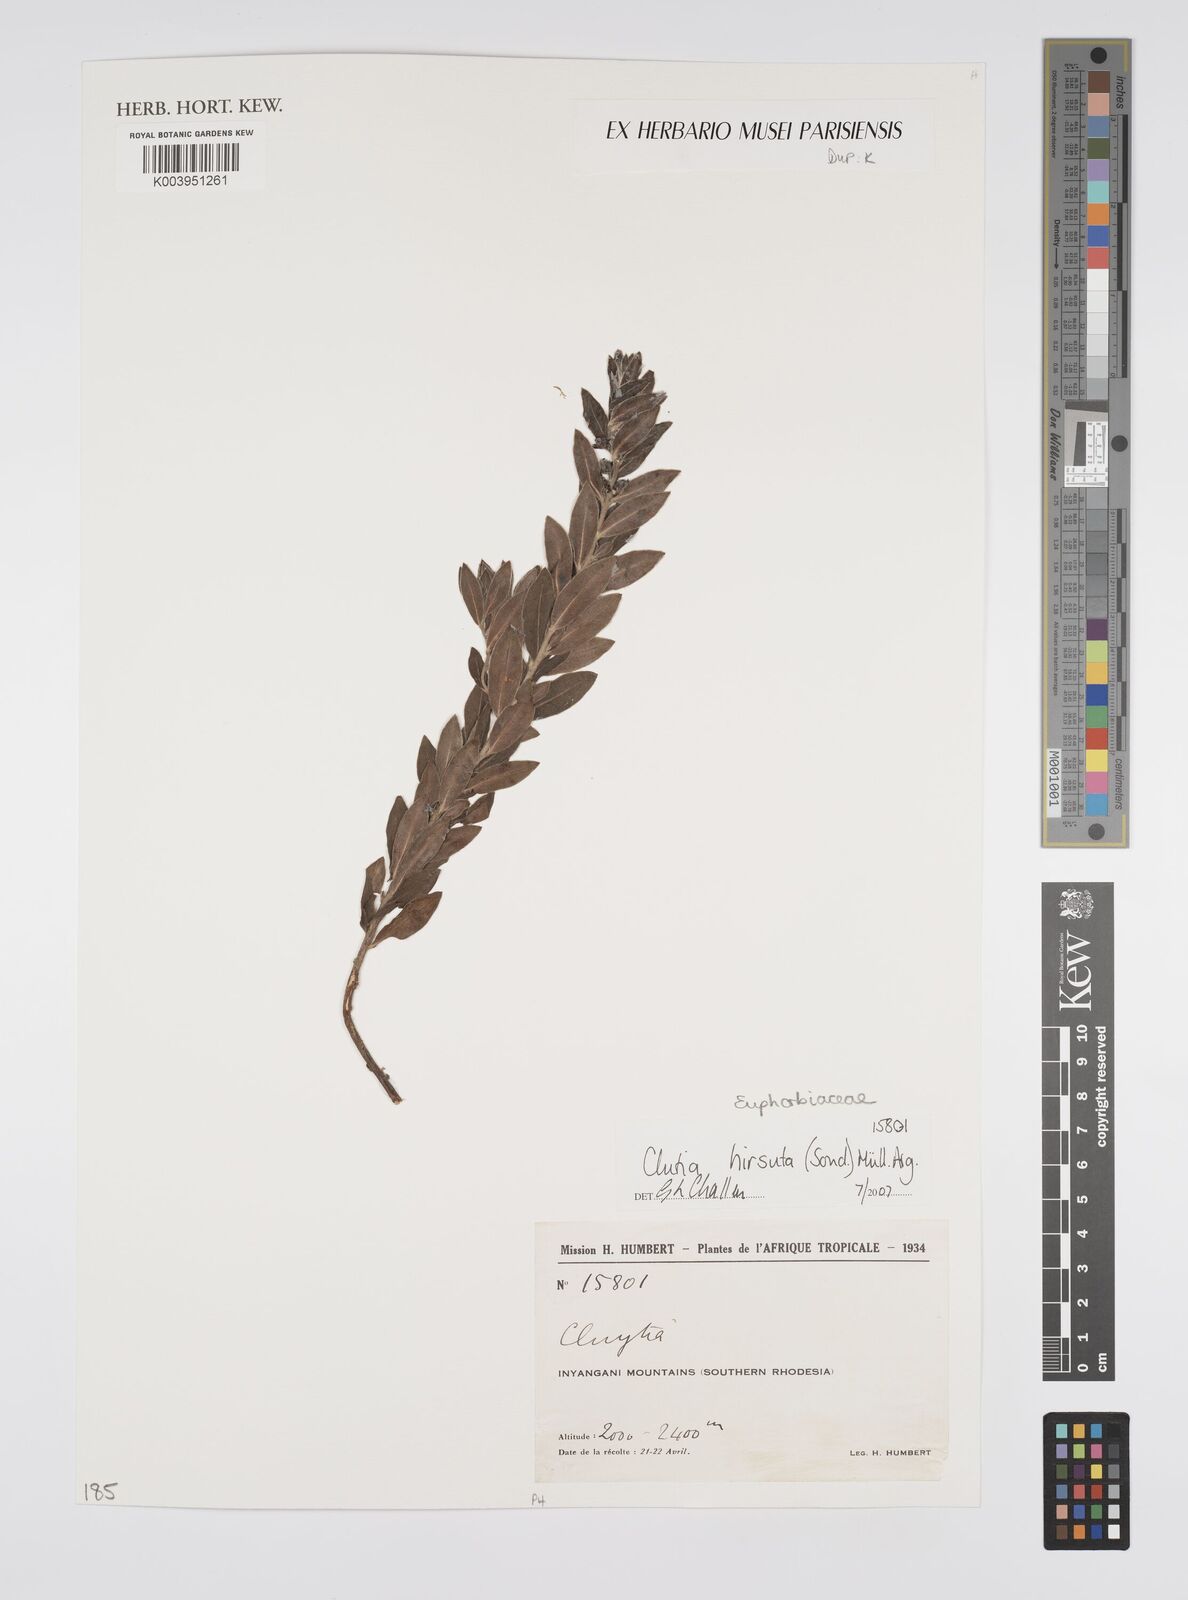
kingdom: Plantae
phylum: Tracheophyta
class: Magnoliopsida
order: Malpighiales
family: Peraceae
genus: Clutia
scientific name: Clutia
